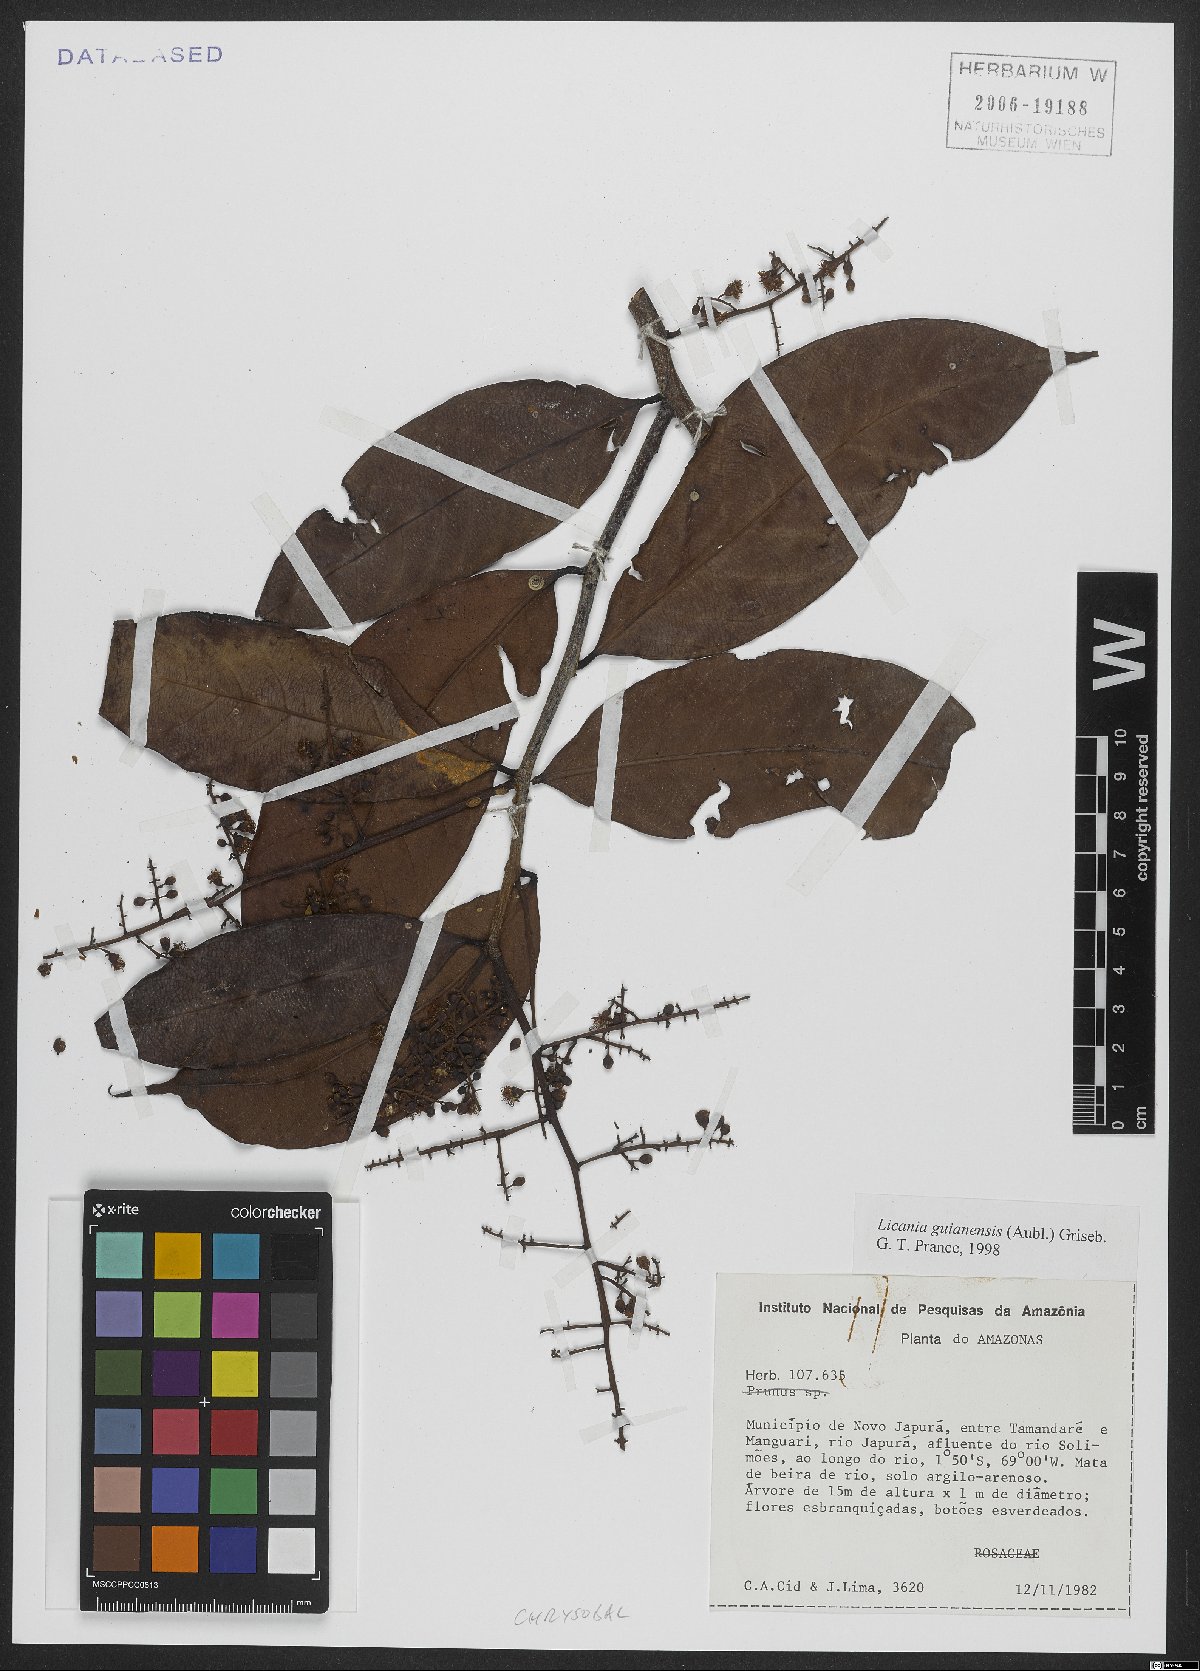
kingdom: Plantae
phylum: Tracheophyta
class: Magnoliopsida
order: Malpighiales
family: Chrysobalanaceae
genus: Moquilea
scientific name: Moquilea guianensis
